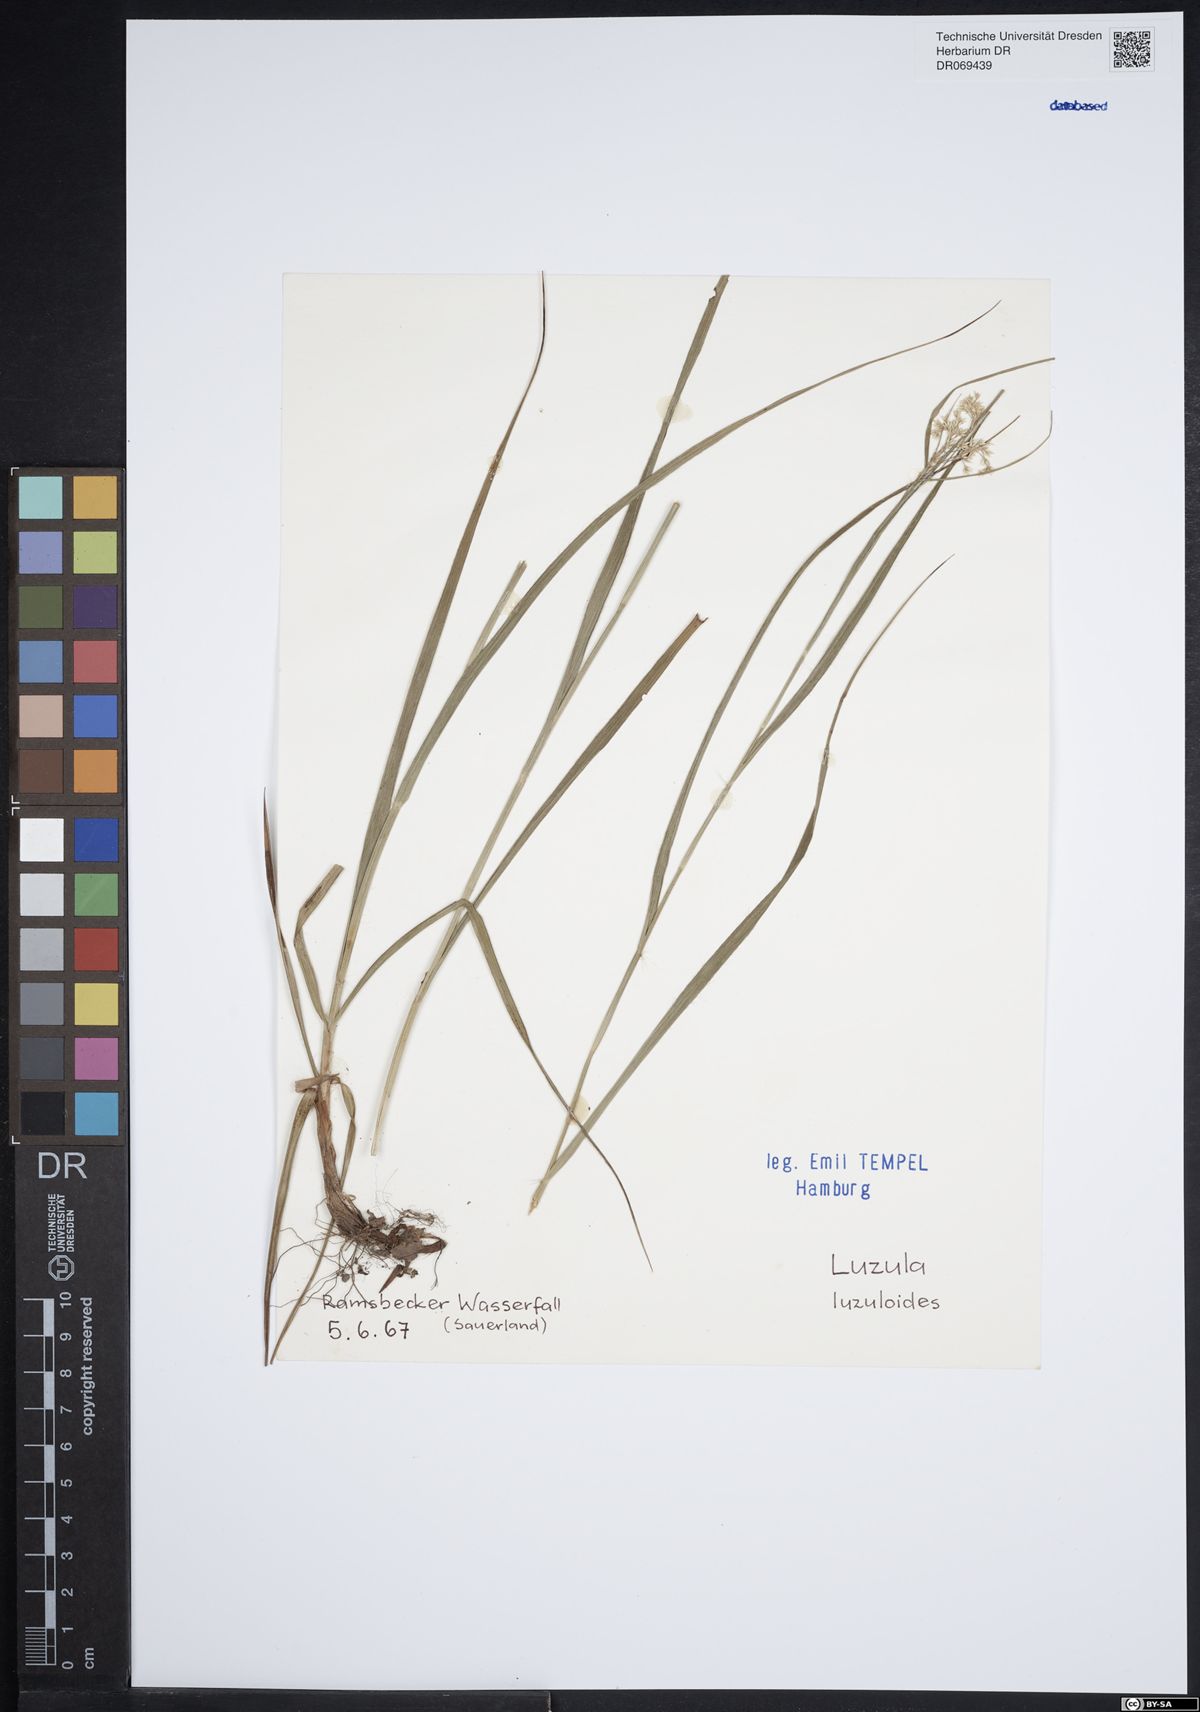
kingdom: Plantae
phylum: Tracheophyta
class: Liliopsida
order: Poales
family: Juncaceae
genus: Luzula
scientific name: Luzula luzuloides
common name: White wood-rush
